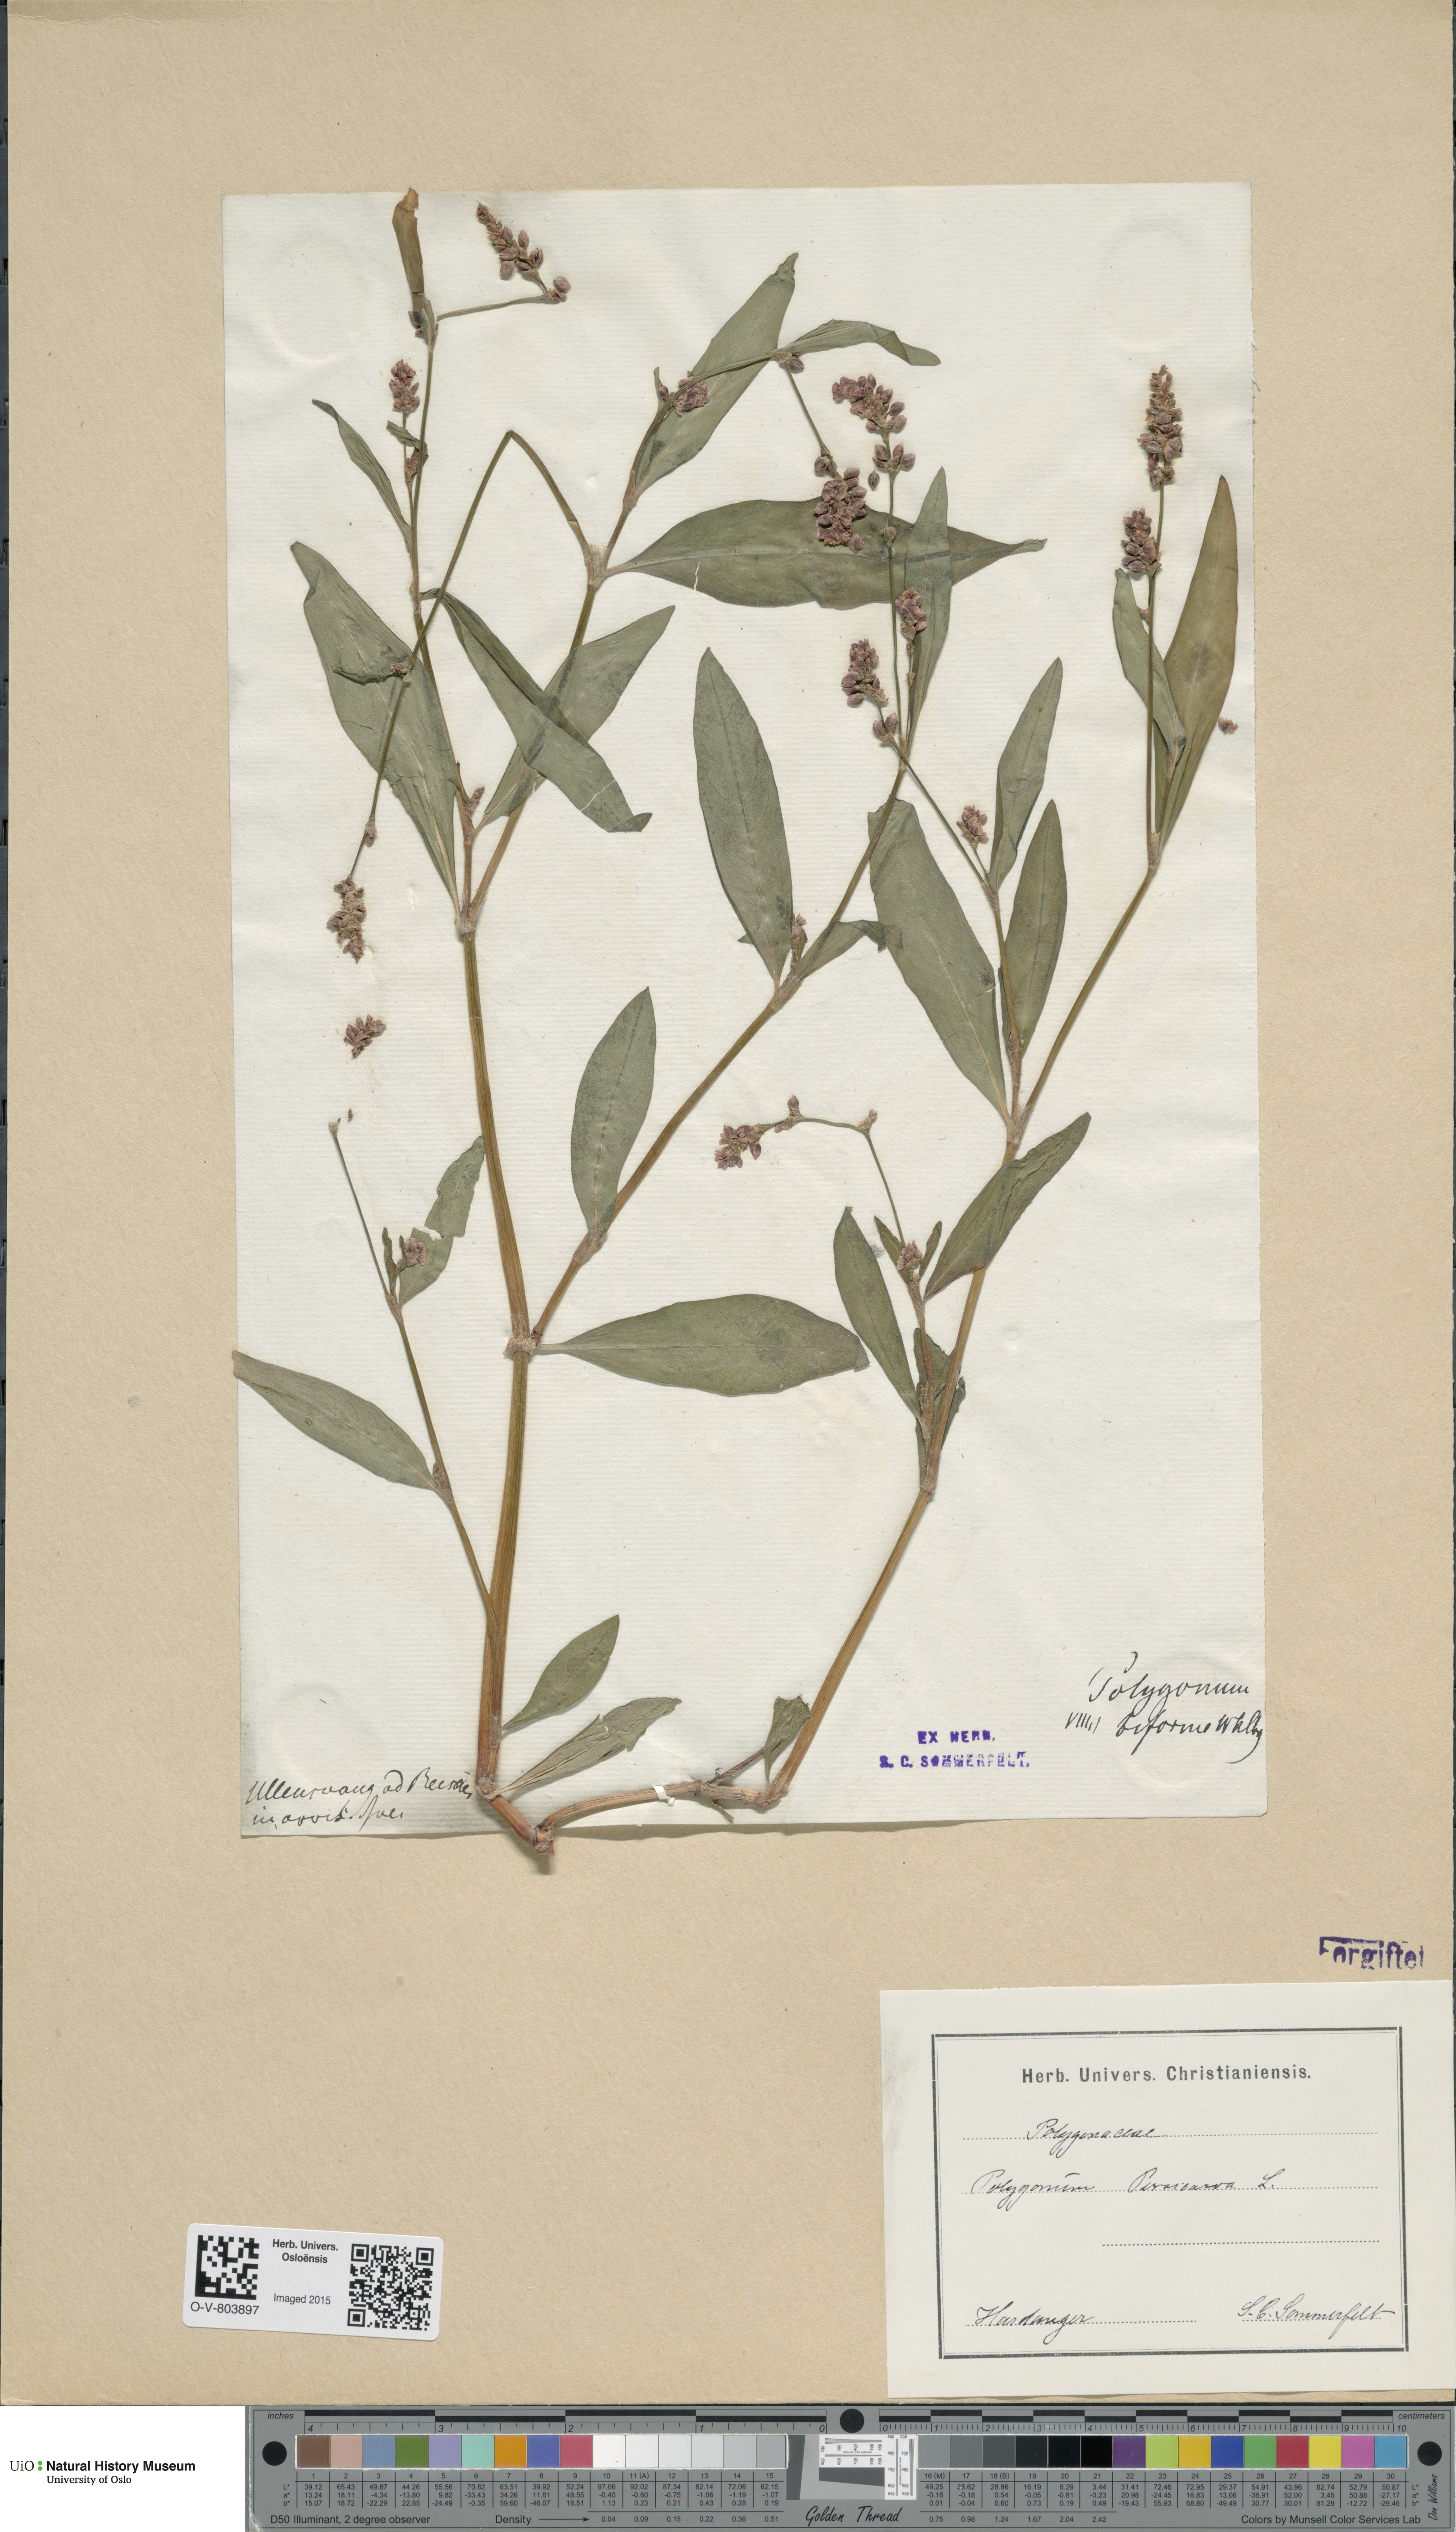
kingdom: Plantae
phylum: Tracheophyta
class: Magnoliopsida
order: Caryophyllales
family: Polygonaceae
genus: Persicaria
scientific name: Persicaria maculosa
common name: Redshank
